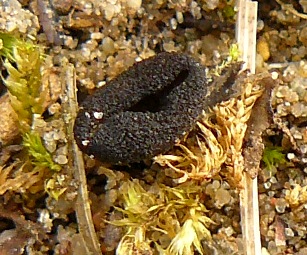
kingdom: Fungi
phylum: Ascomycota
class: Pezizomycetes
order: Pezizales
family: Helvellaceae
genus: Helvella
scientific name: Helvella corium
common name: pile-foldhat
